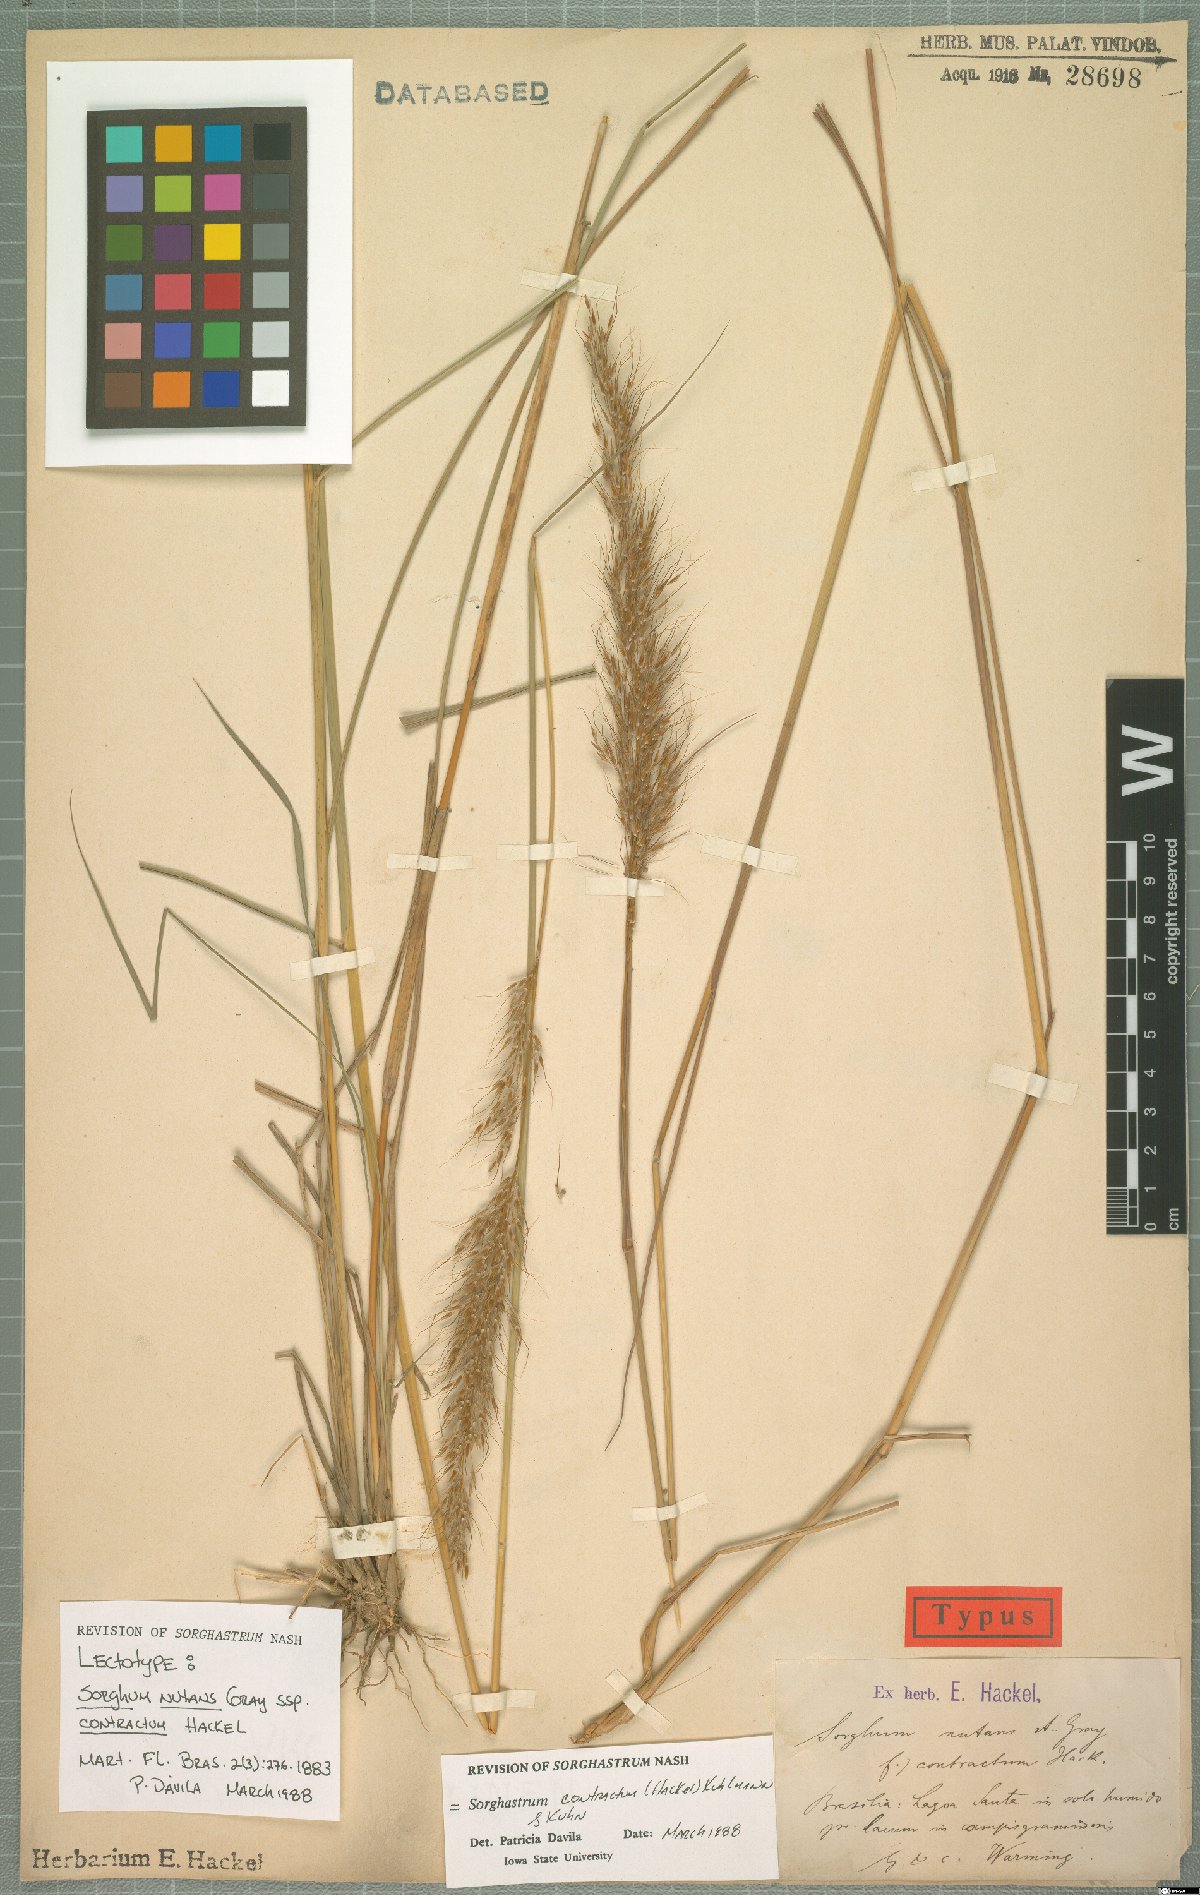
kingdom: Plantae
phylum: Tracheophyta
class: Liliopsida
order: Poales
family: Poaceae
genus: Sorghastrum
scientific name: Sorghastrum contractum
